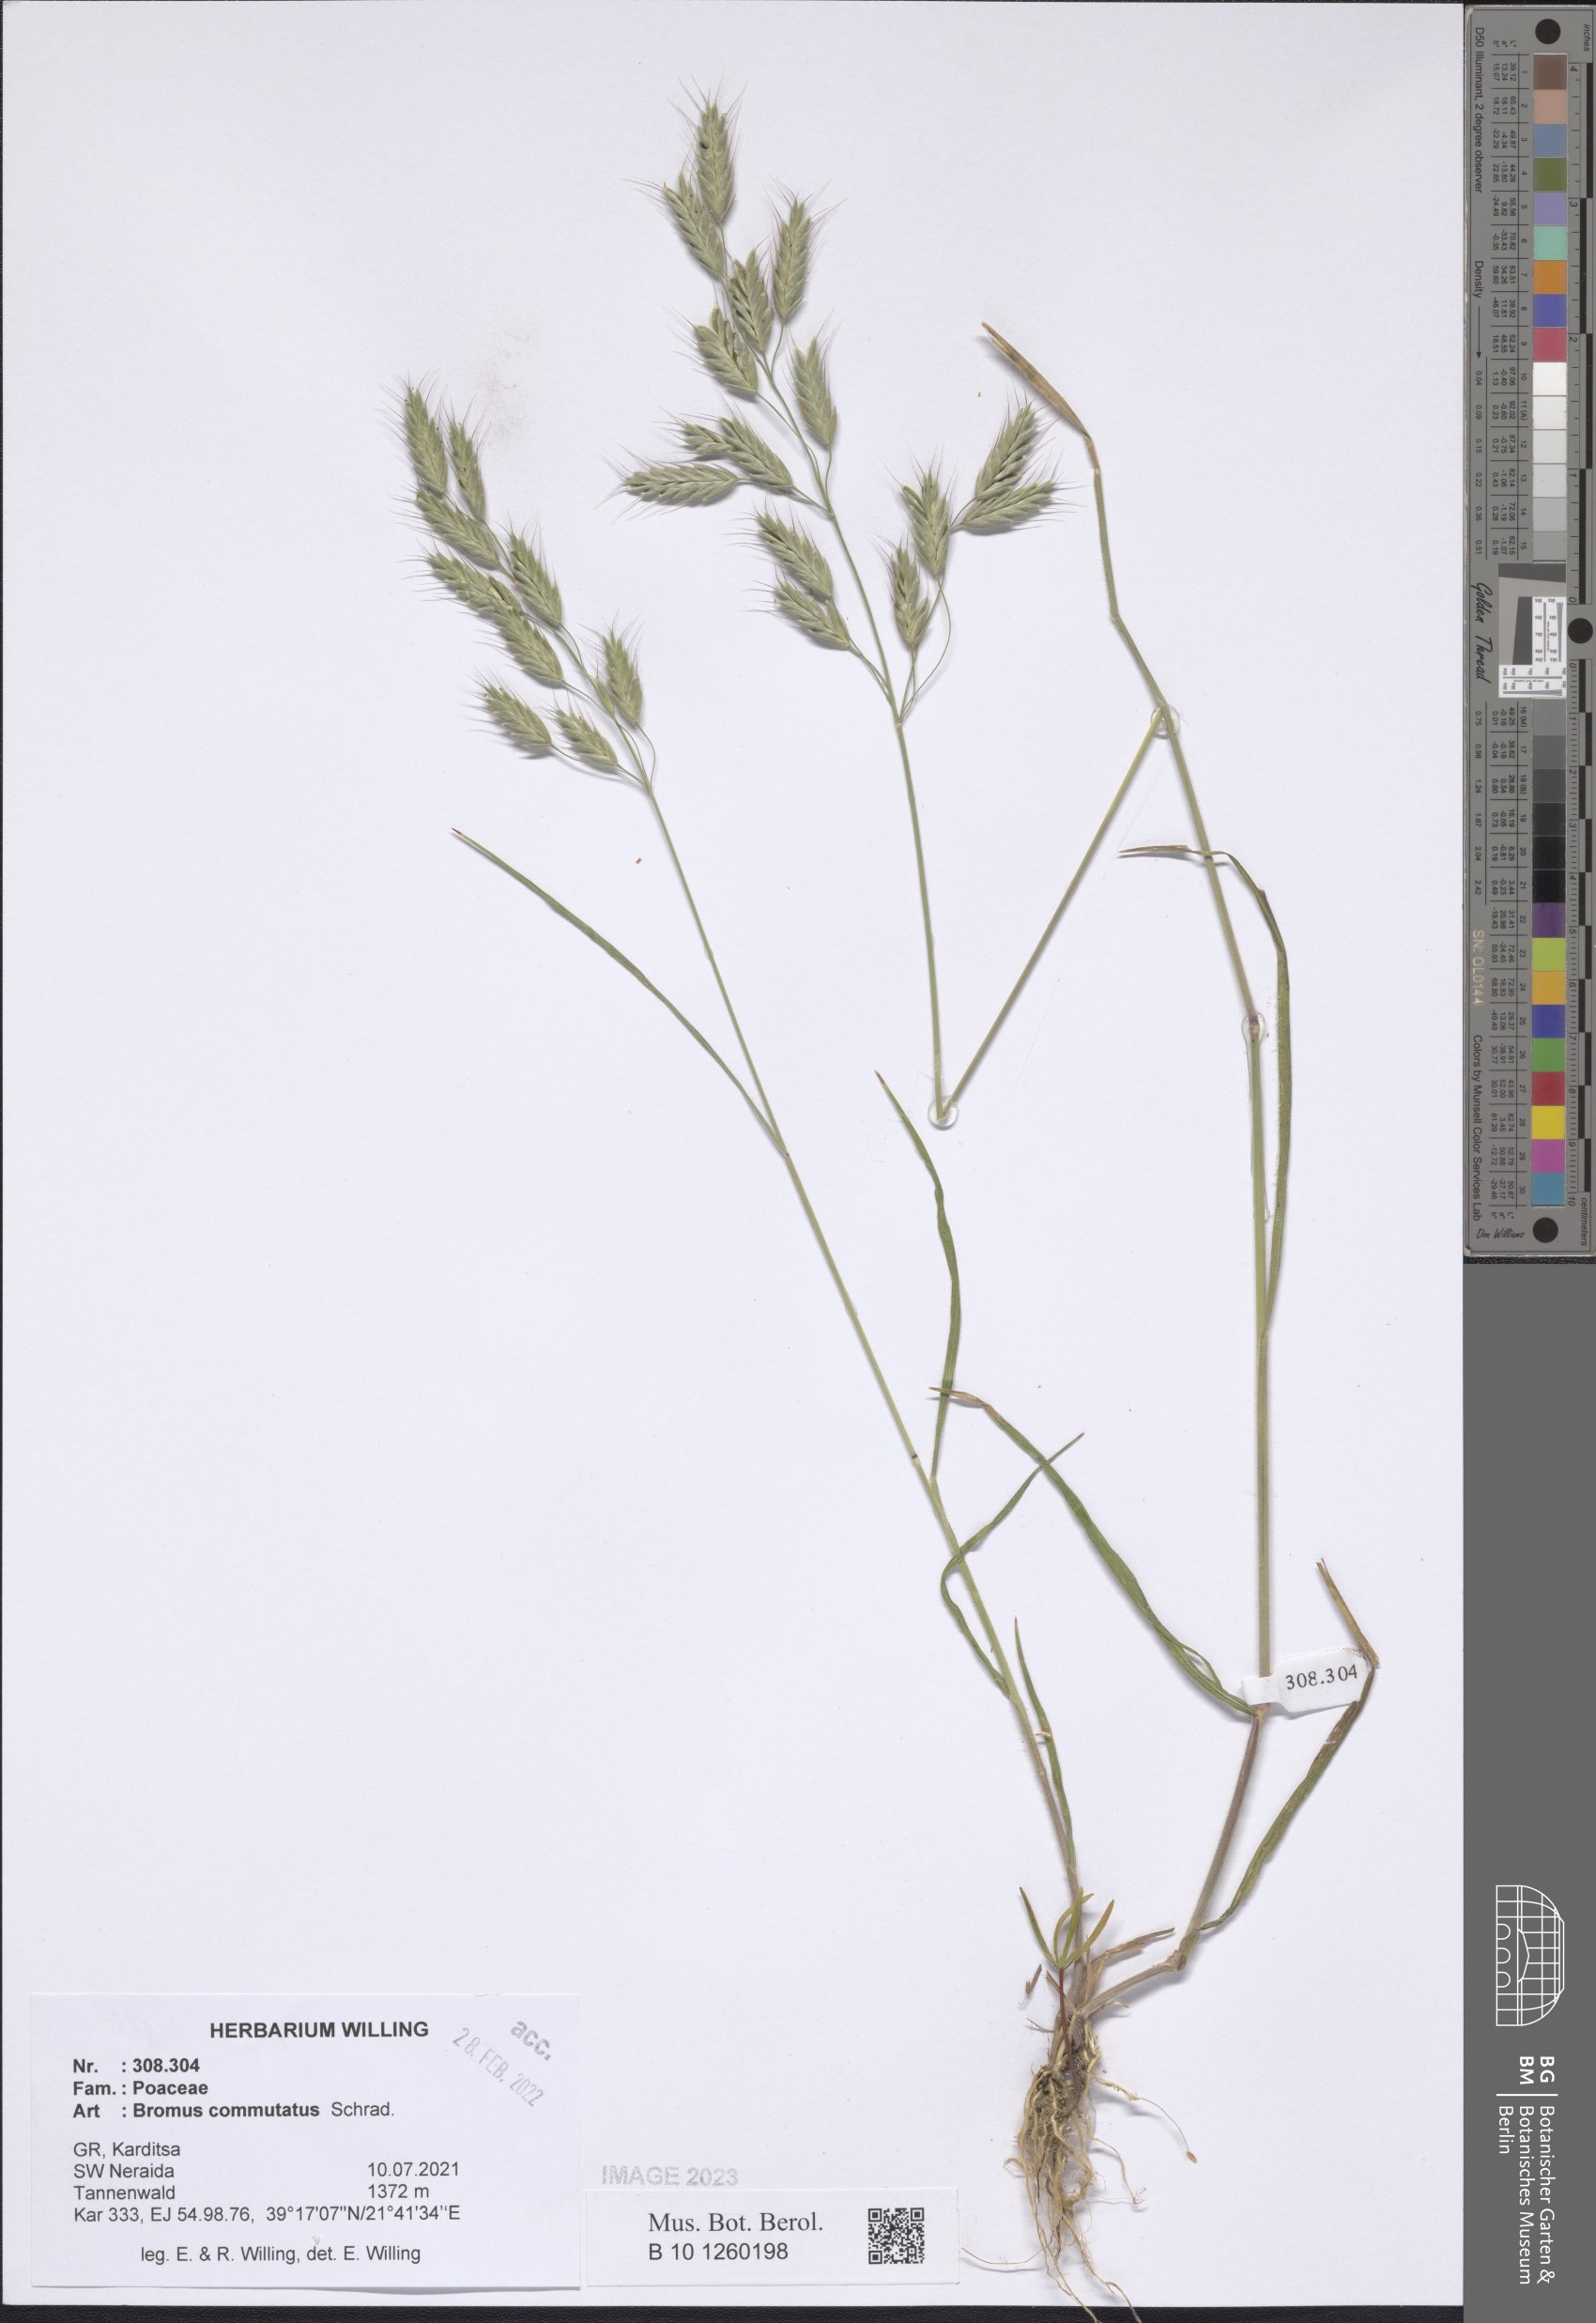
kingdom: Plantae
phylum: Tracheophyta
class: Liliopsida
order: Poales
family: Poaceae
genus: Bromus
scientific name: Bromus commutatus
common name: Meadow brome
